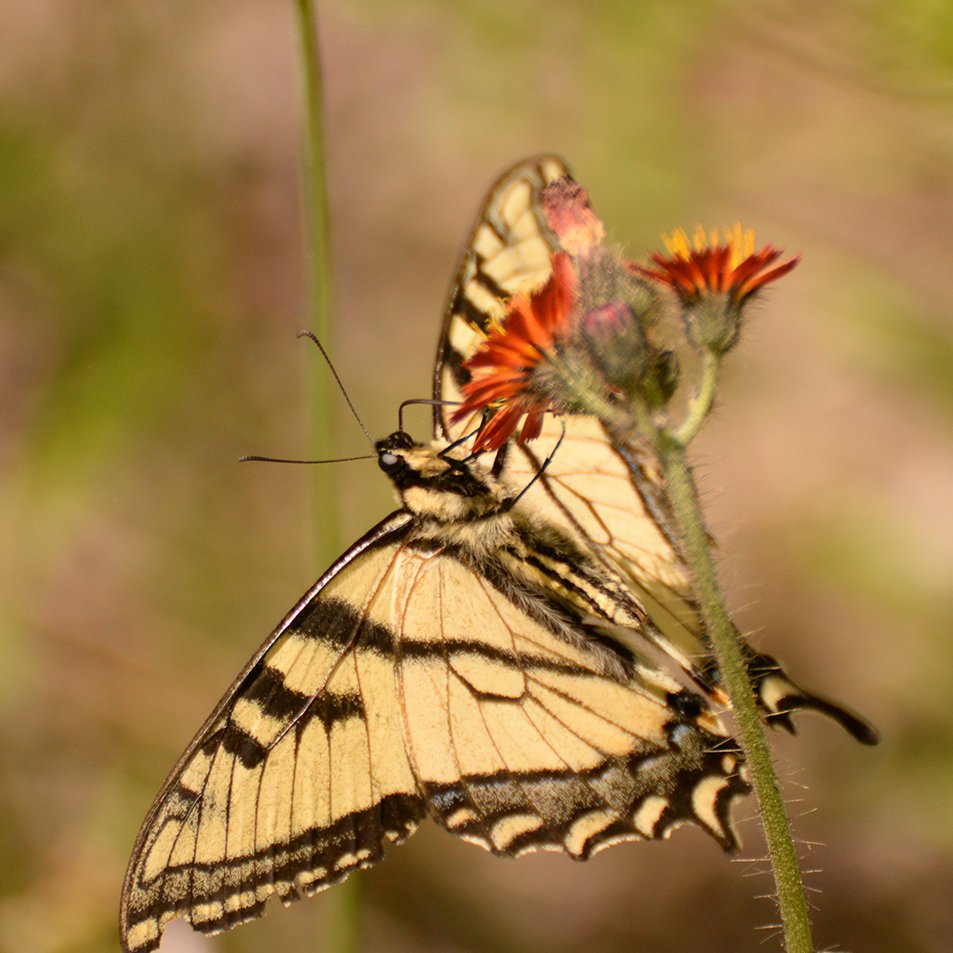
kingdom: Animalia
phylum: Arthropoda
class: Insecta
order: Lepidoptera
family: Papilionidae
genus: Pterourus
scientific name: Pterourus canadensis
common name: Canadian Tiger Swallowtail
